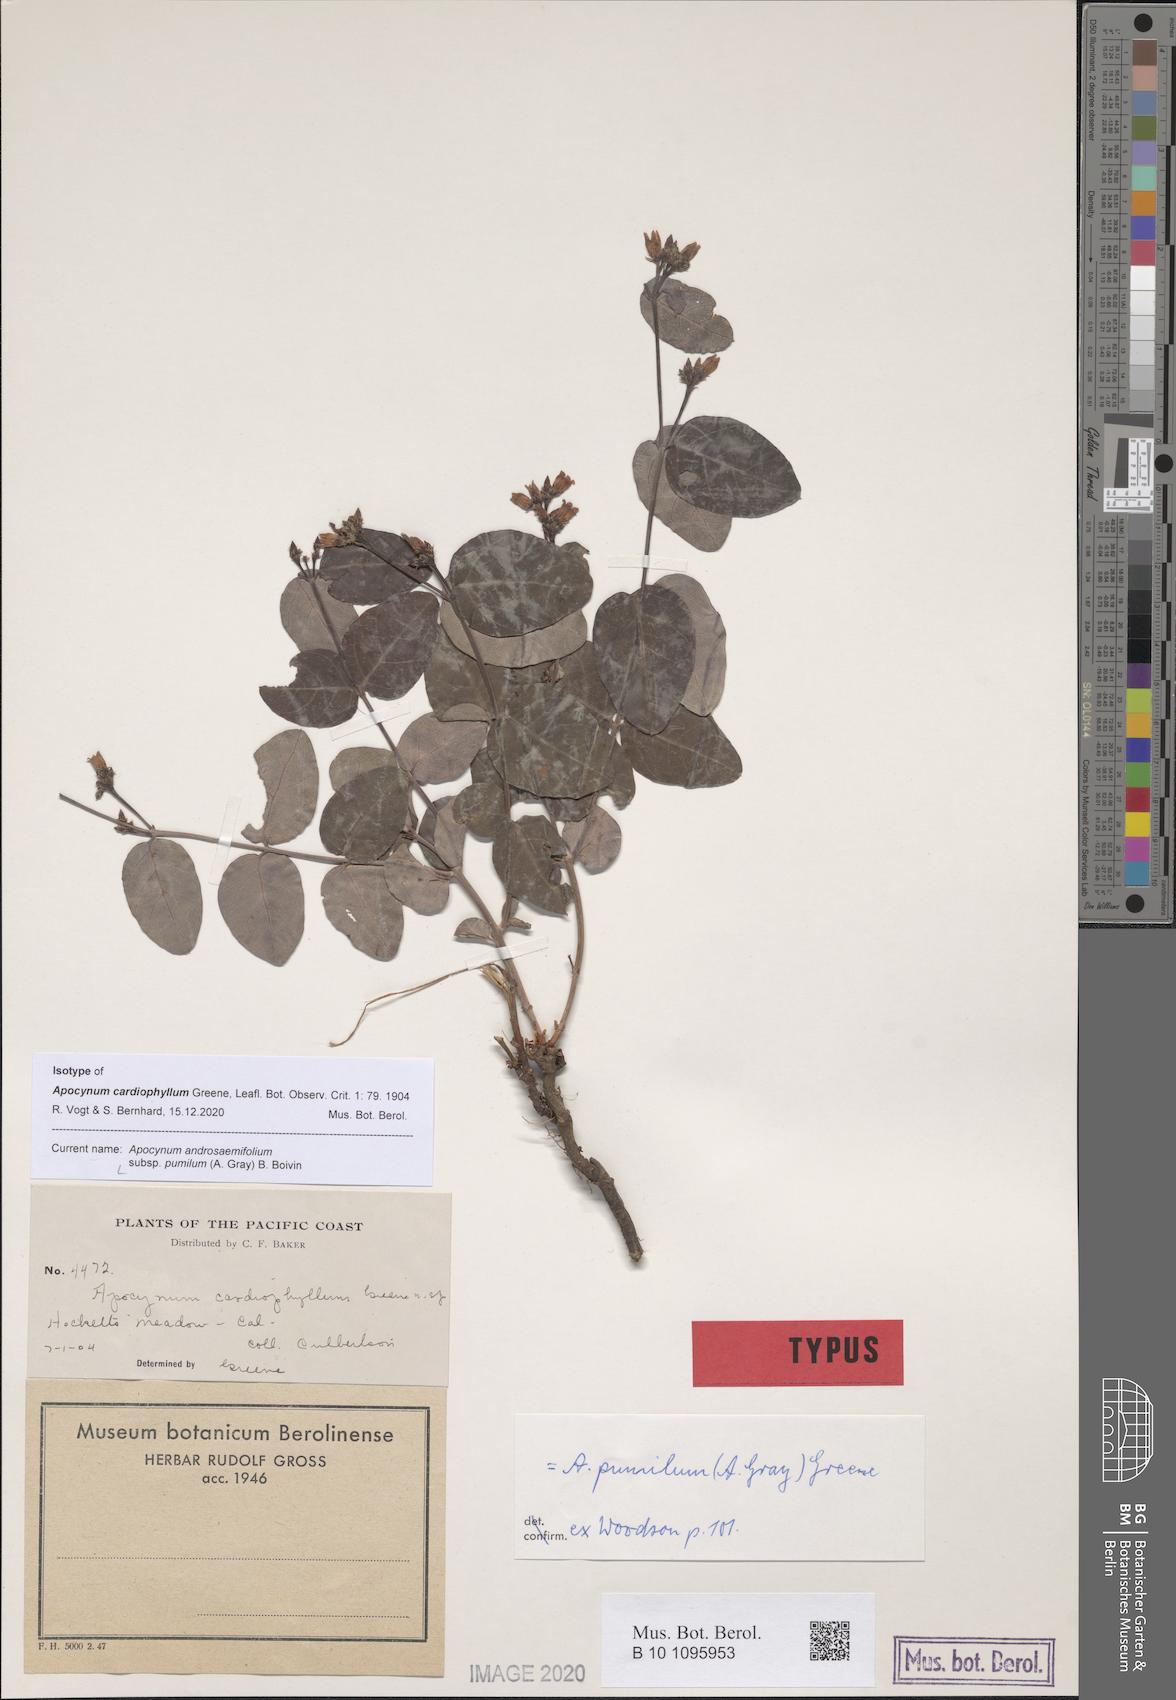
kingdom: Plantae
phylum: Tracheophyta
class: Magnoliopsida
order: Gentianales
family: Apocynaceae
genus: Apocynum
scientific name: Apocynum androsaemifolium
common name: Spreading dogbane
